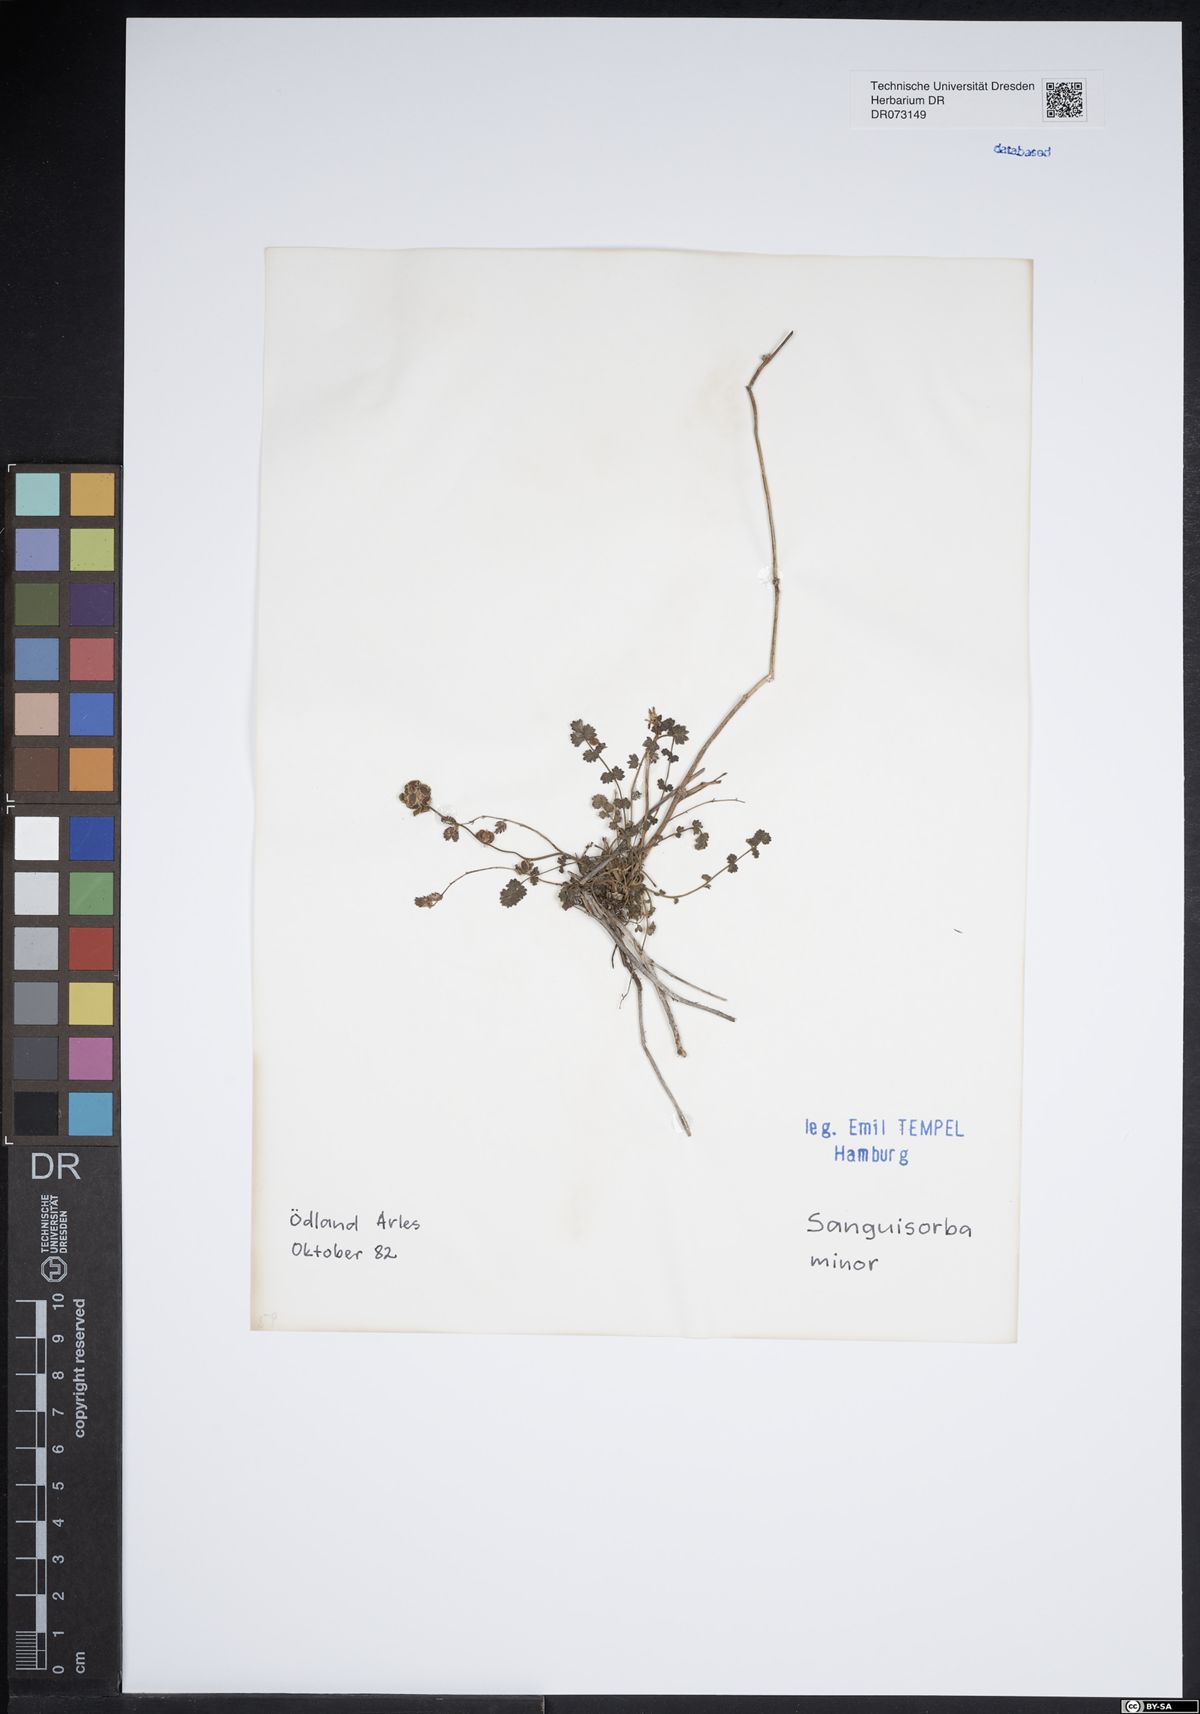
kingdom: Plantae
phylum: Tracheophyta
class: Magnoliopsida
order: Rosales
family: Rosaceae
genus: Poterium
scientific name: Poterium sanguisorba
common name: Salad burnet
